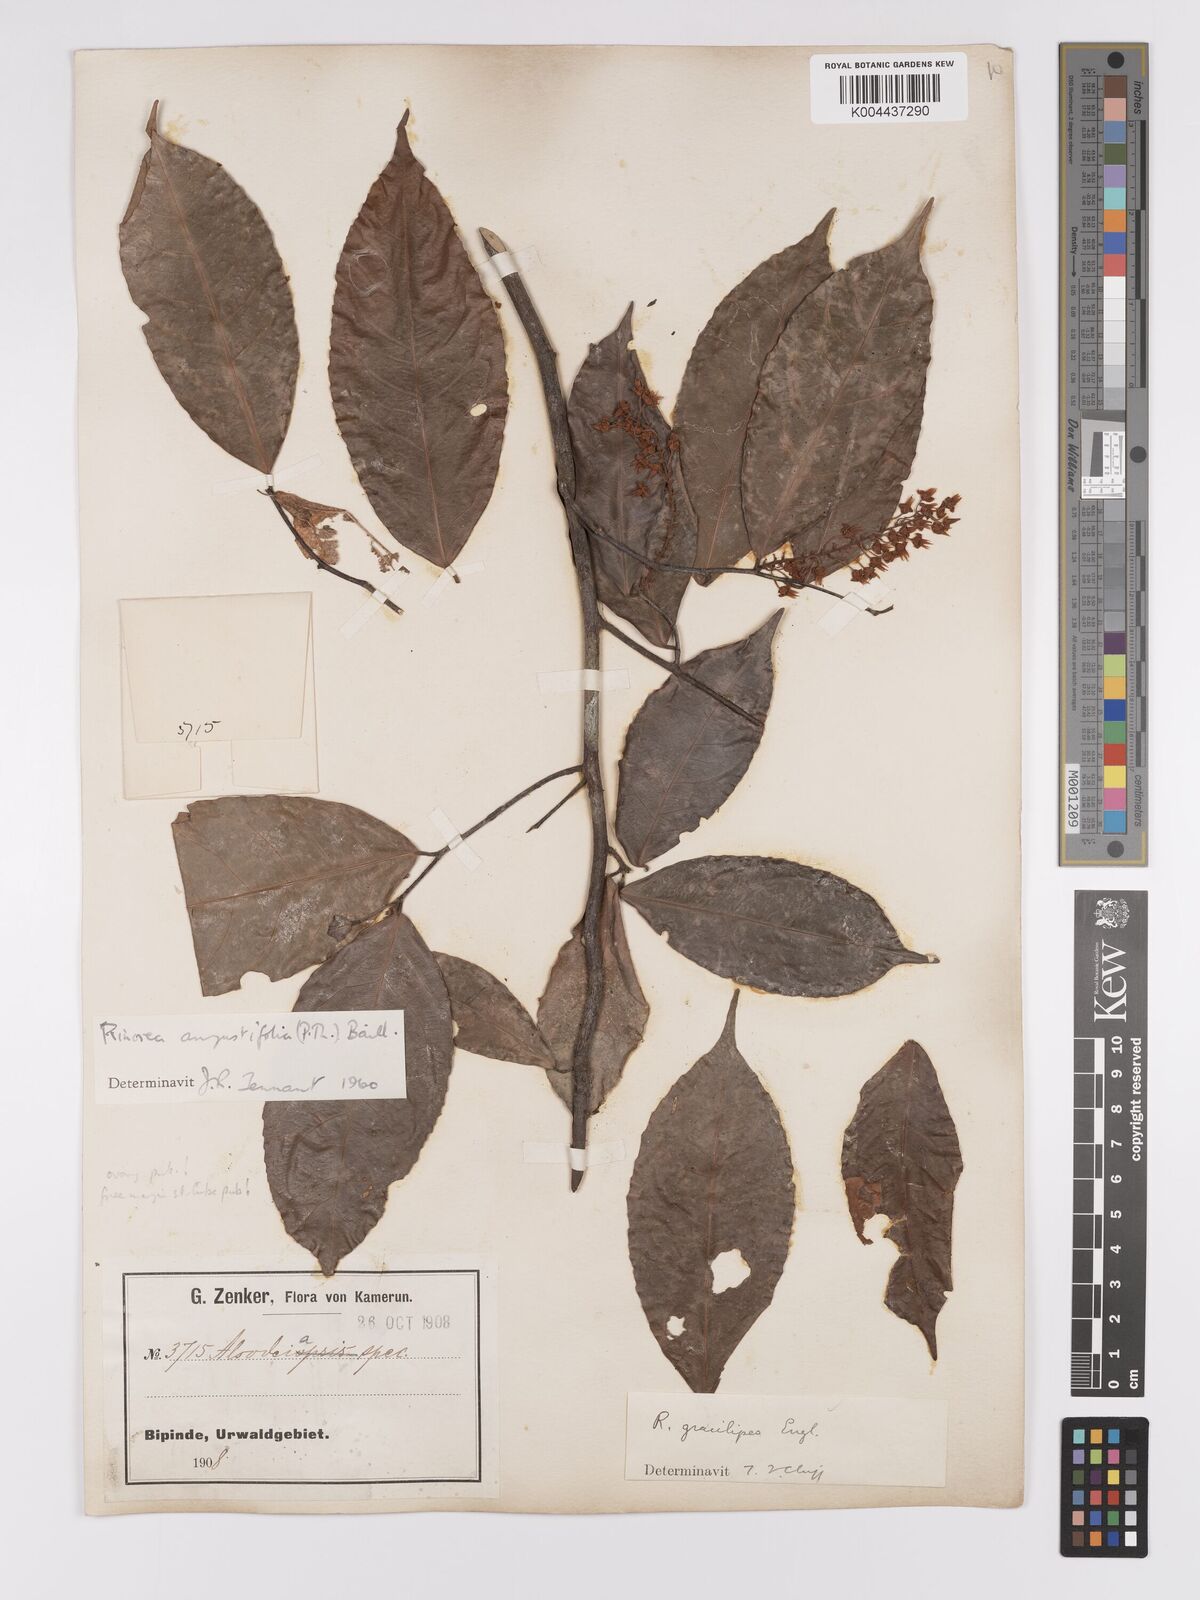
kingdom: Plantae
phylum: Tracheophyta
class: Magnoliopsida
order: Malpighiales
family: Violaceae
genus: Rinorea
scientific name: Rinorea angustifolia
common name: White violet-bush
